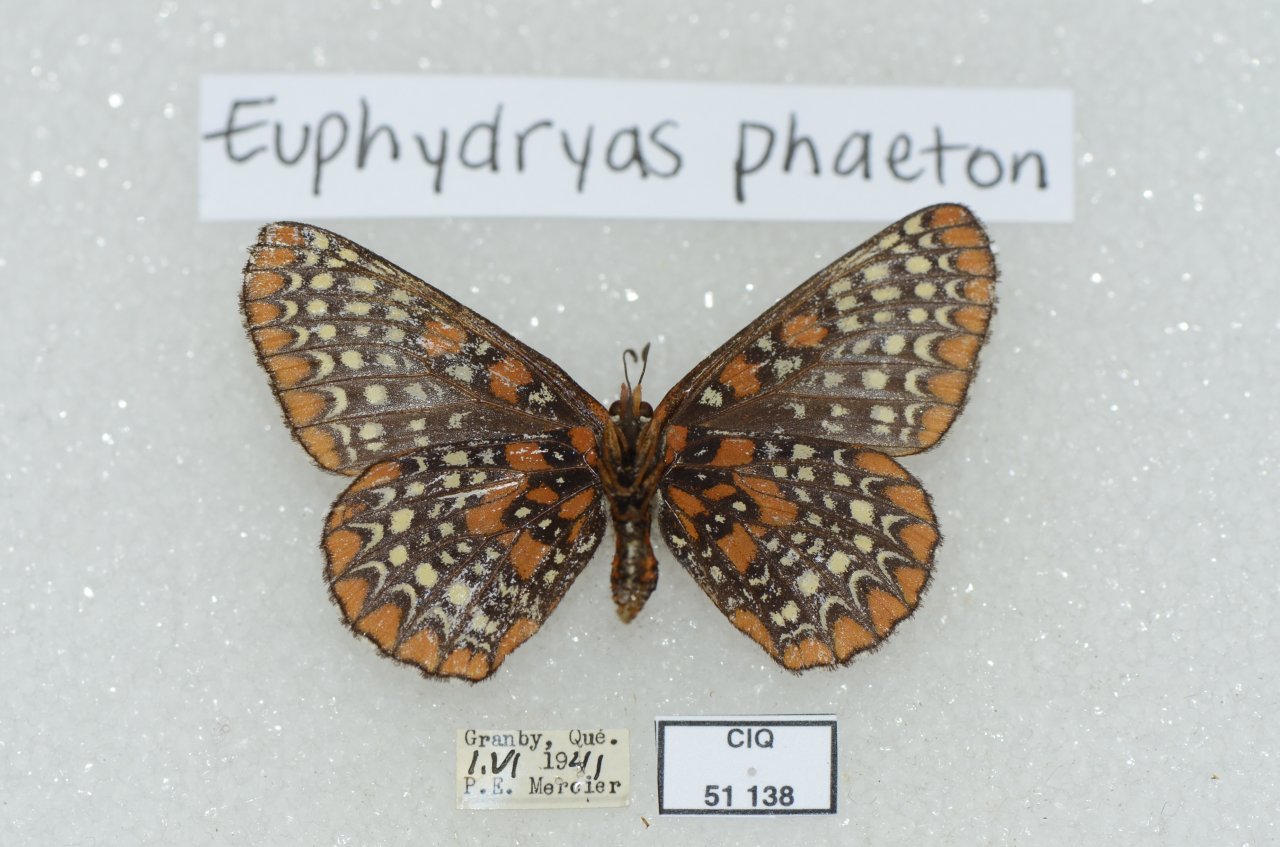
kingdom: Animalia
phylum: Arthropoda
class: Insecta
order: Lepidoptera
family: Nymphalidae
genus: Euphydryas
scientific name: Euphydryas phaeton
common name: Baltimore Checkerspot
